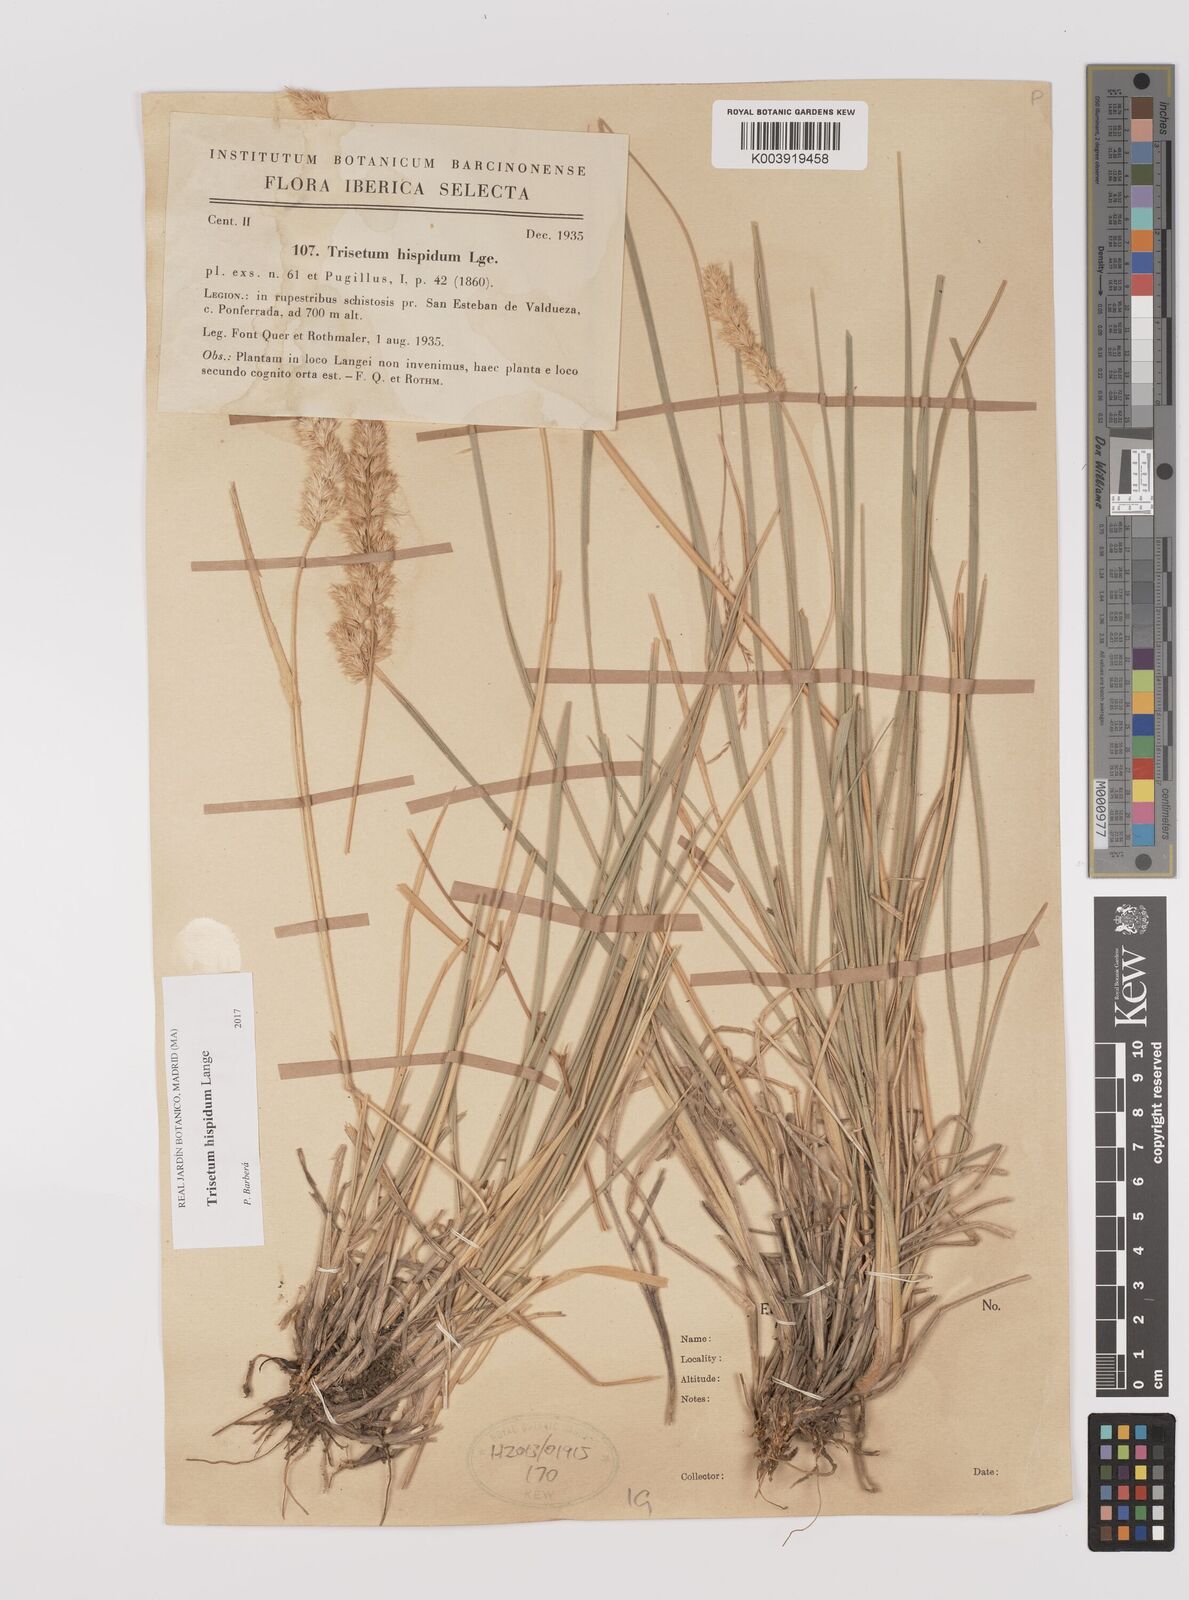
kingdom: Plantae
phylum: Tracheophyta
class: Liliopsida
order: Poales
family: Poaceae
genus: Koeleria
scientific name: Koeleria hispanica
